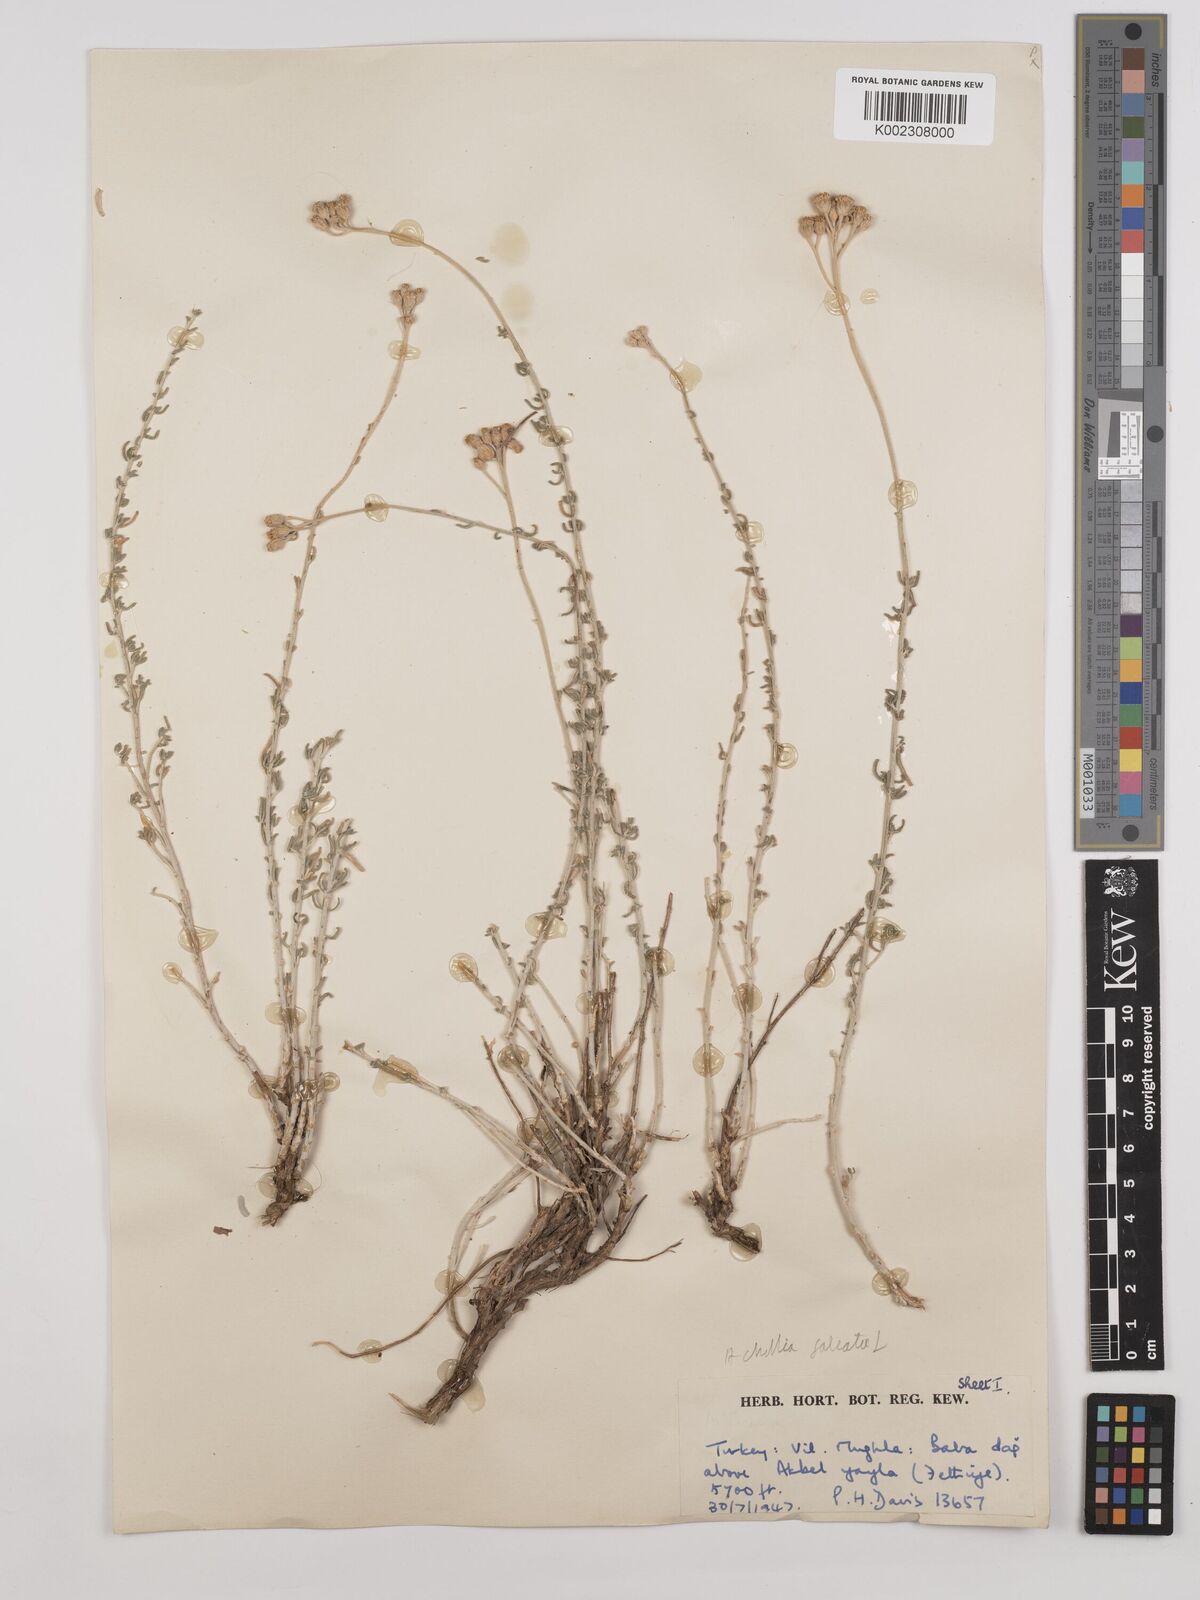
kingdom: Plantae
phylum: Tracheophyta
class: Magnoliopsida
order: Asterales
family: Asteraceae
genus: Achillea
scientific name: Achillea chamaemelifolia
